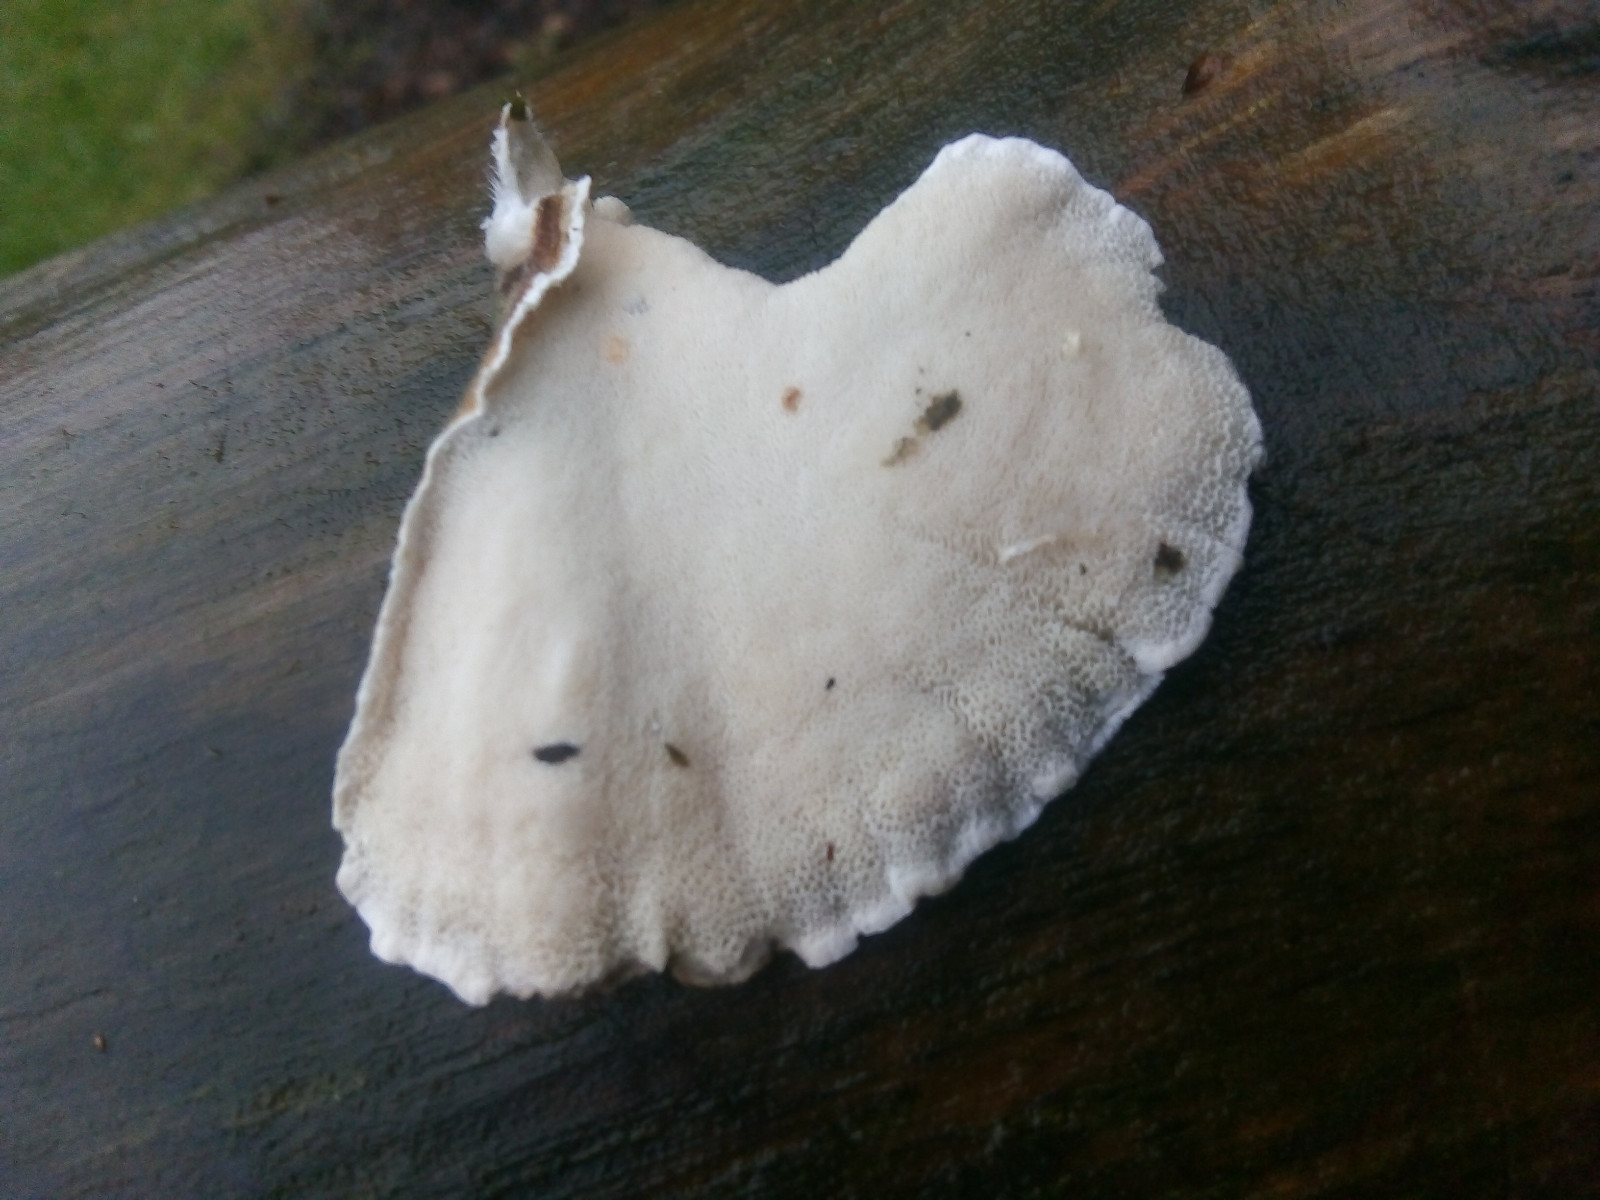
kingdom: Fungi
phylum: Basidiomycota
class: Agaricomycetes
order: Polyporales
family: Polyporaceae
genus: Trametes
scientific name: Trametes versicolor
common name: broget læderporesvamp
